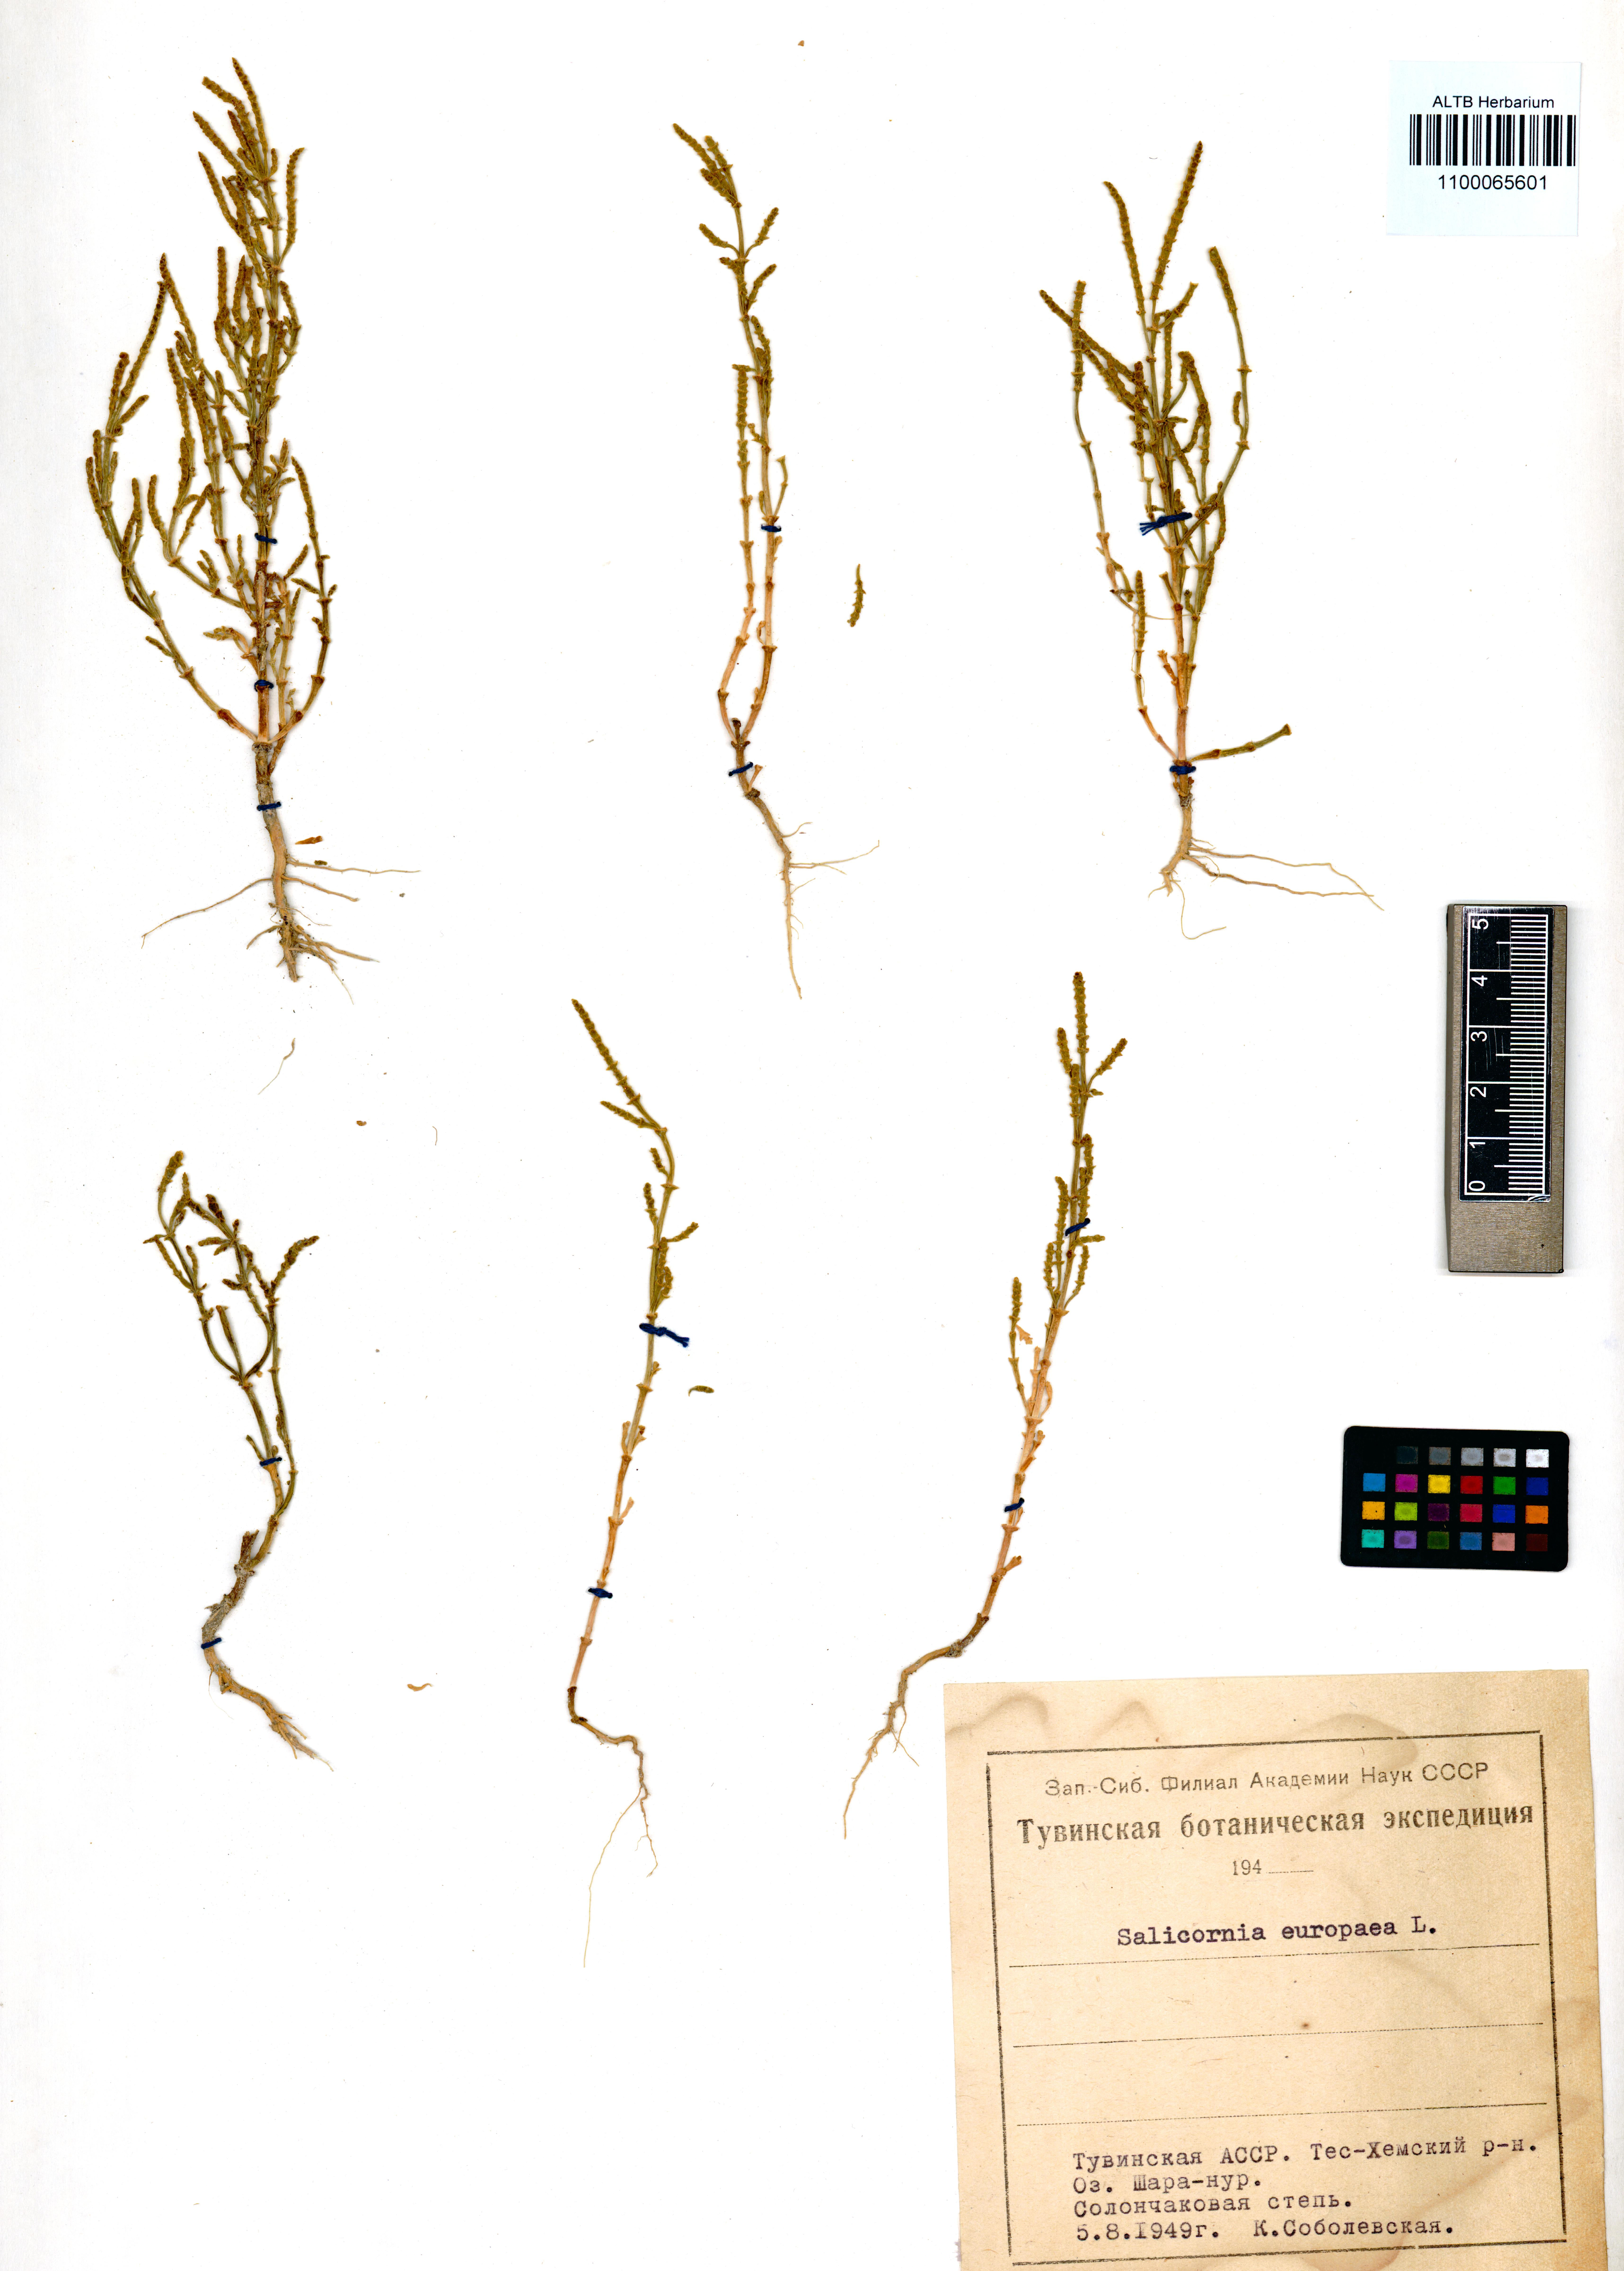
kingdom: Plantae
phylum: Tracheophyta
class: Magnoliopsida
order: Caryophyllales
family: Amaranthaceae
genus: Salicornia
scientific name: Salicornia europaea
